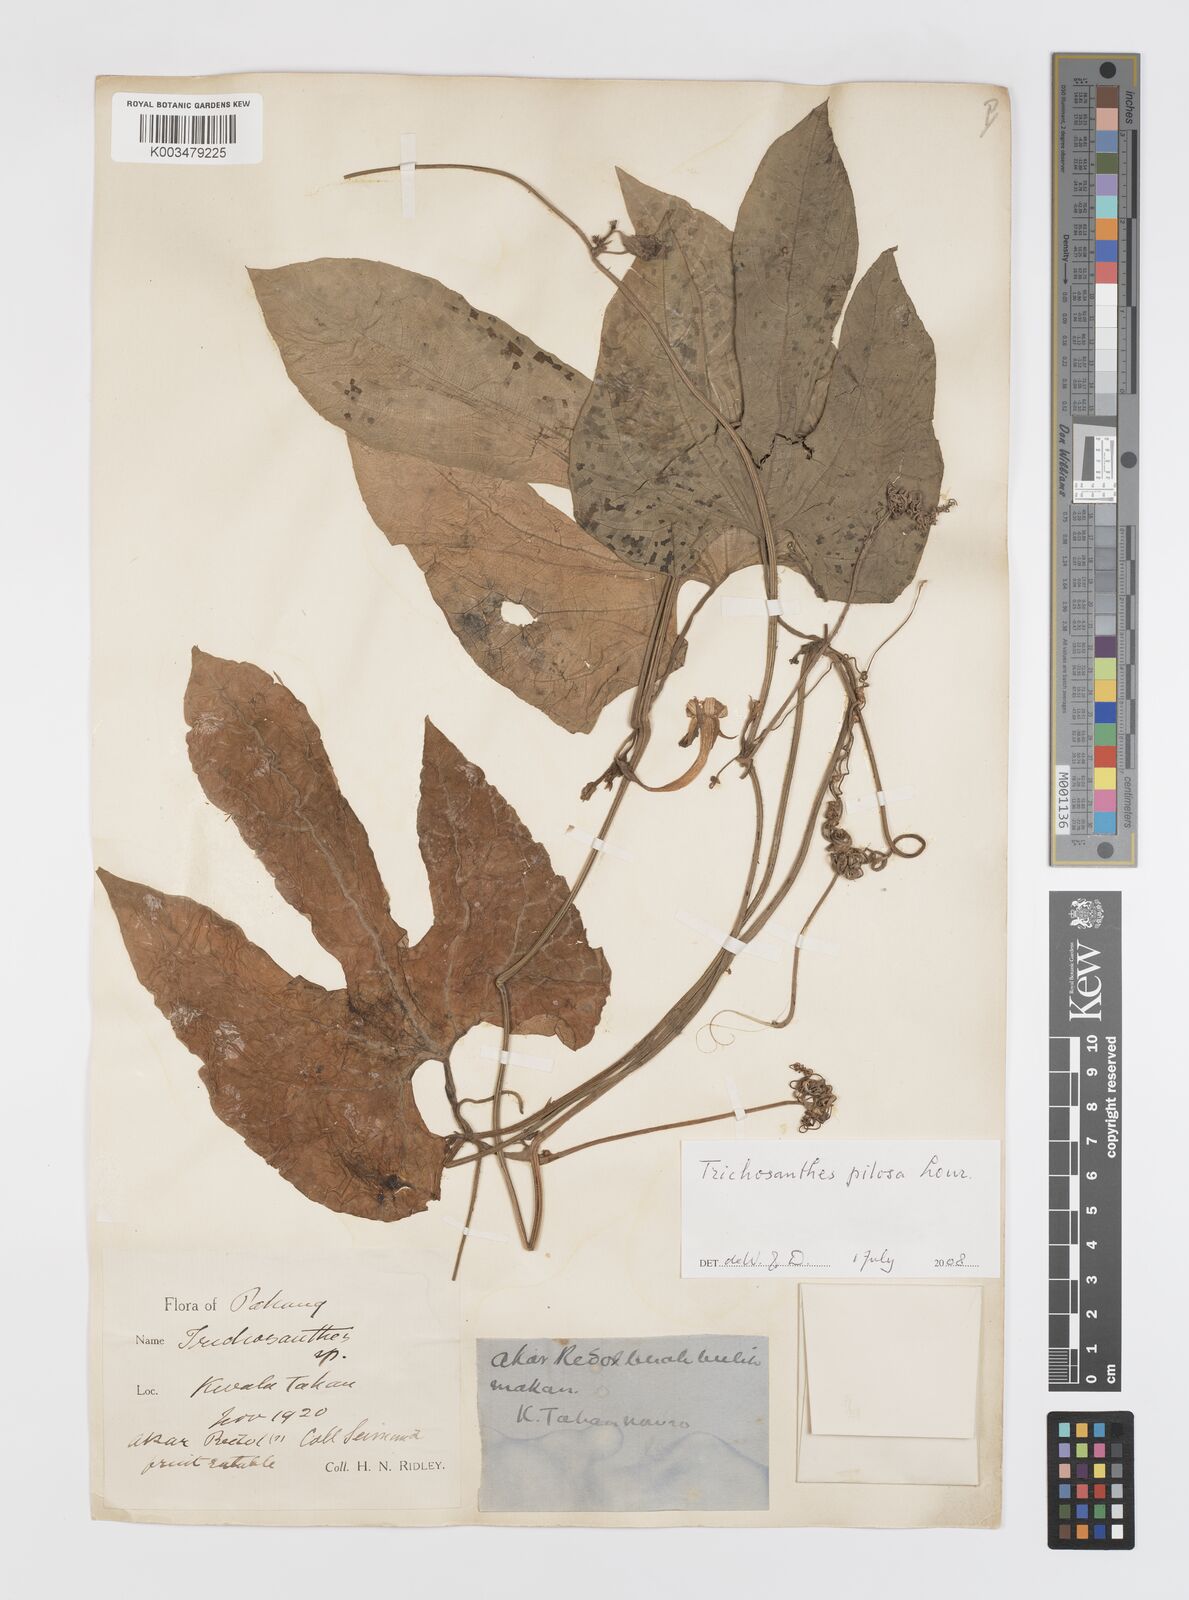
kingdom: Plantae
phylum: Tracheophyta
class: Magnoliopsida
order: Cucurbitales
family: Cucurbitaceae
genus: Trichosanthes
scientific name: Trichosanthes pilosa
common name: Snake gourd
